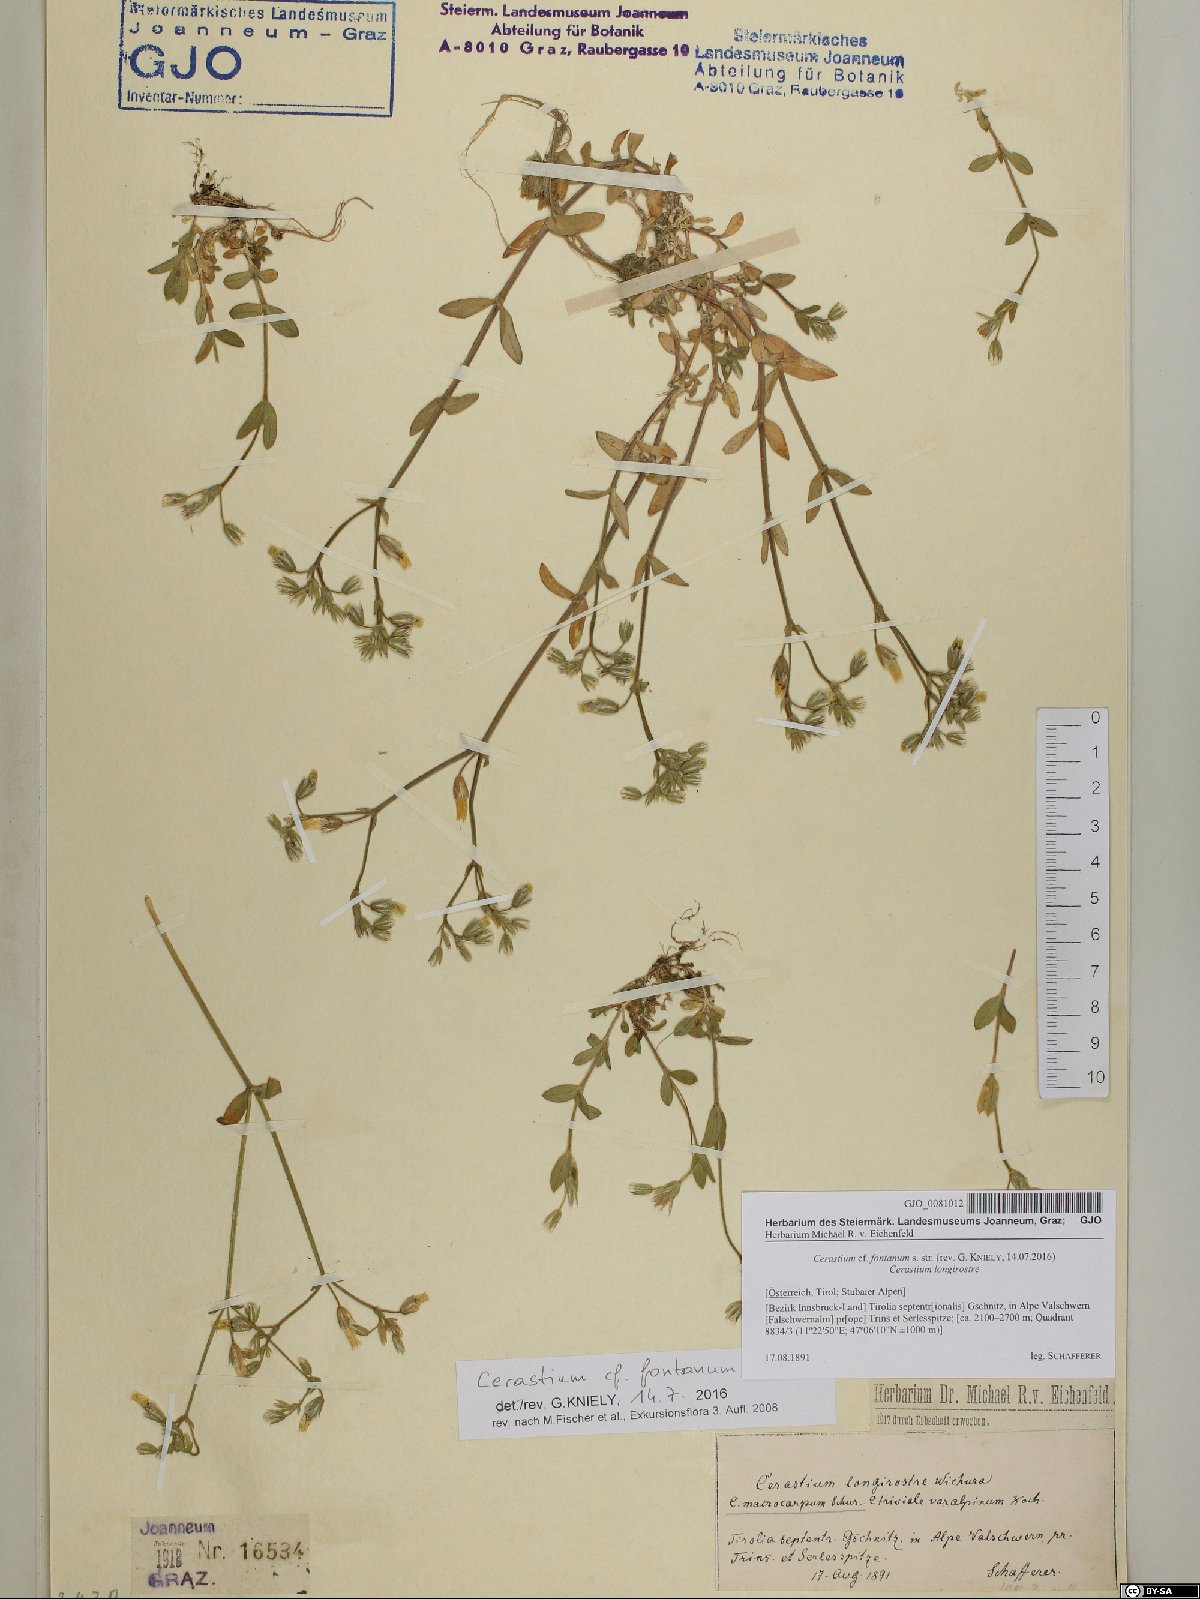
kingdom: Plantae
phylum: Tracheophyta
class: Magnoliopsida
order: Caryophyllales
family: Caryophyllaceae
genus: Cerastium
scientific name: Cerastium fontanum
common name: Common mouse-ear
